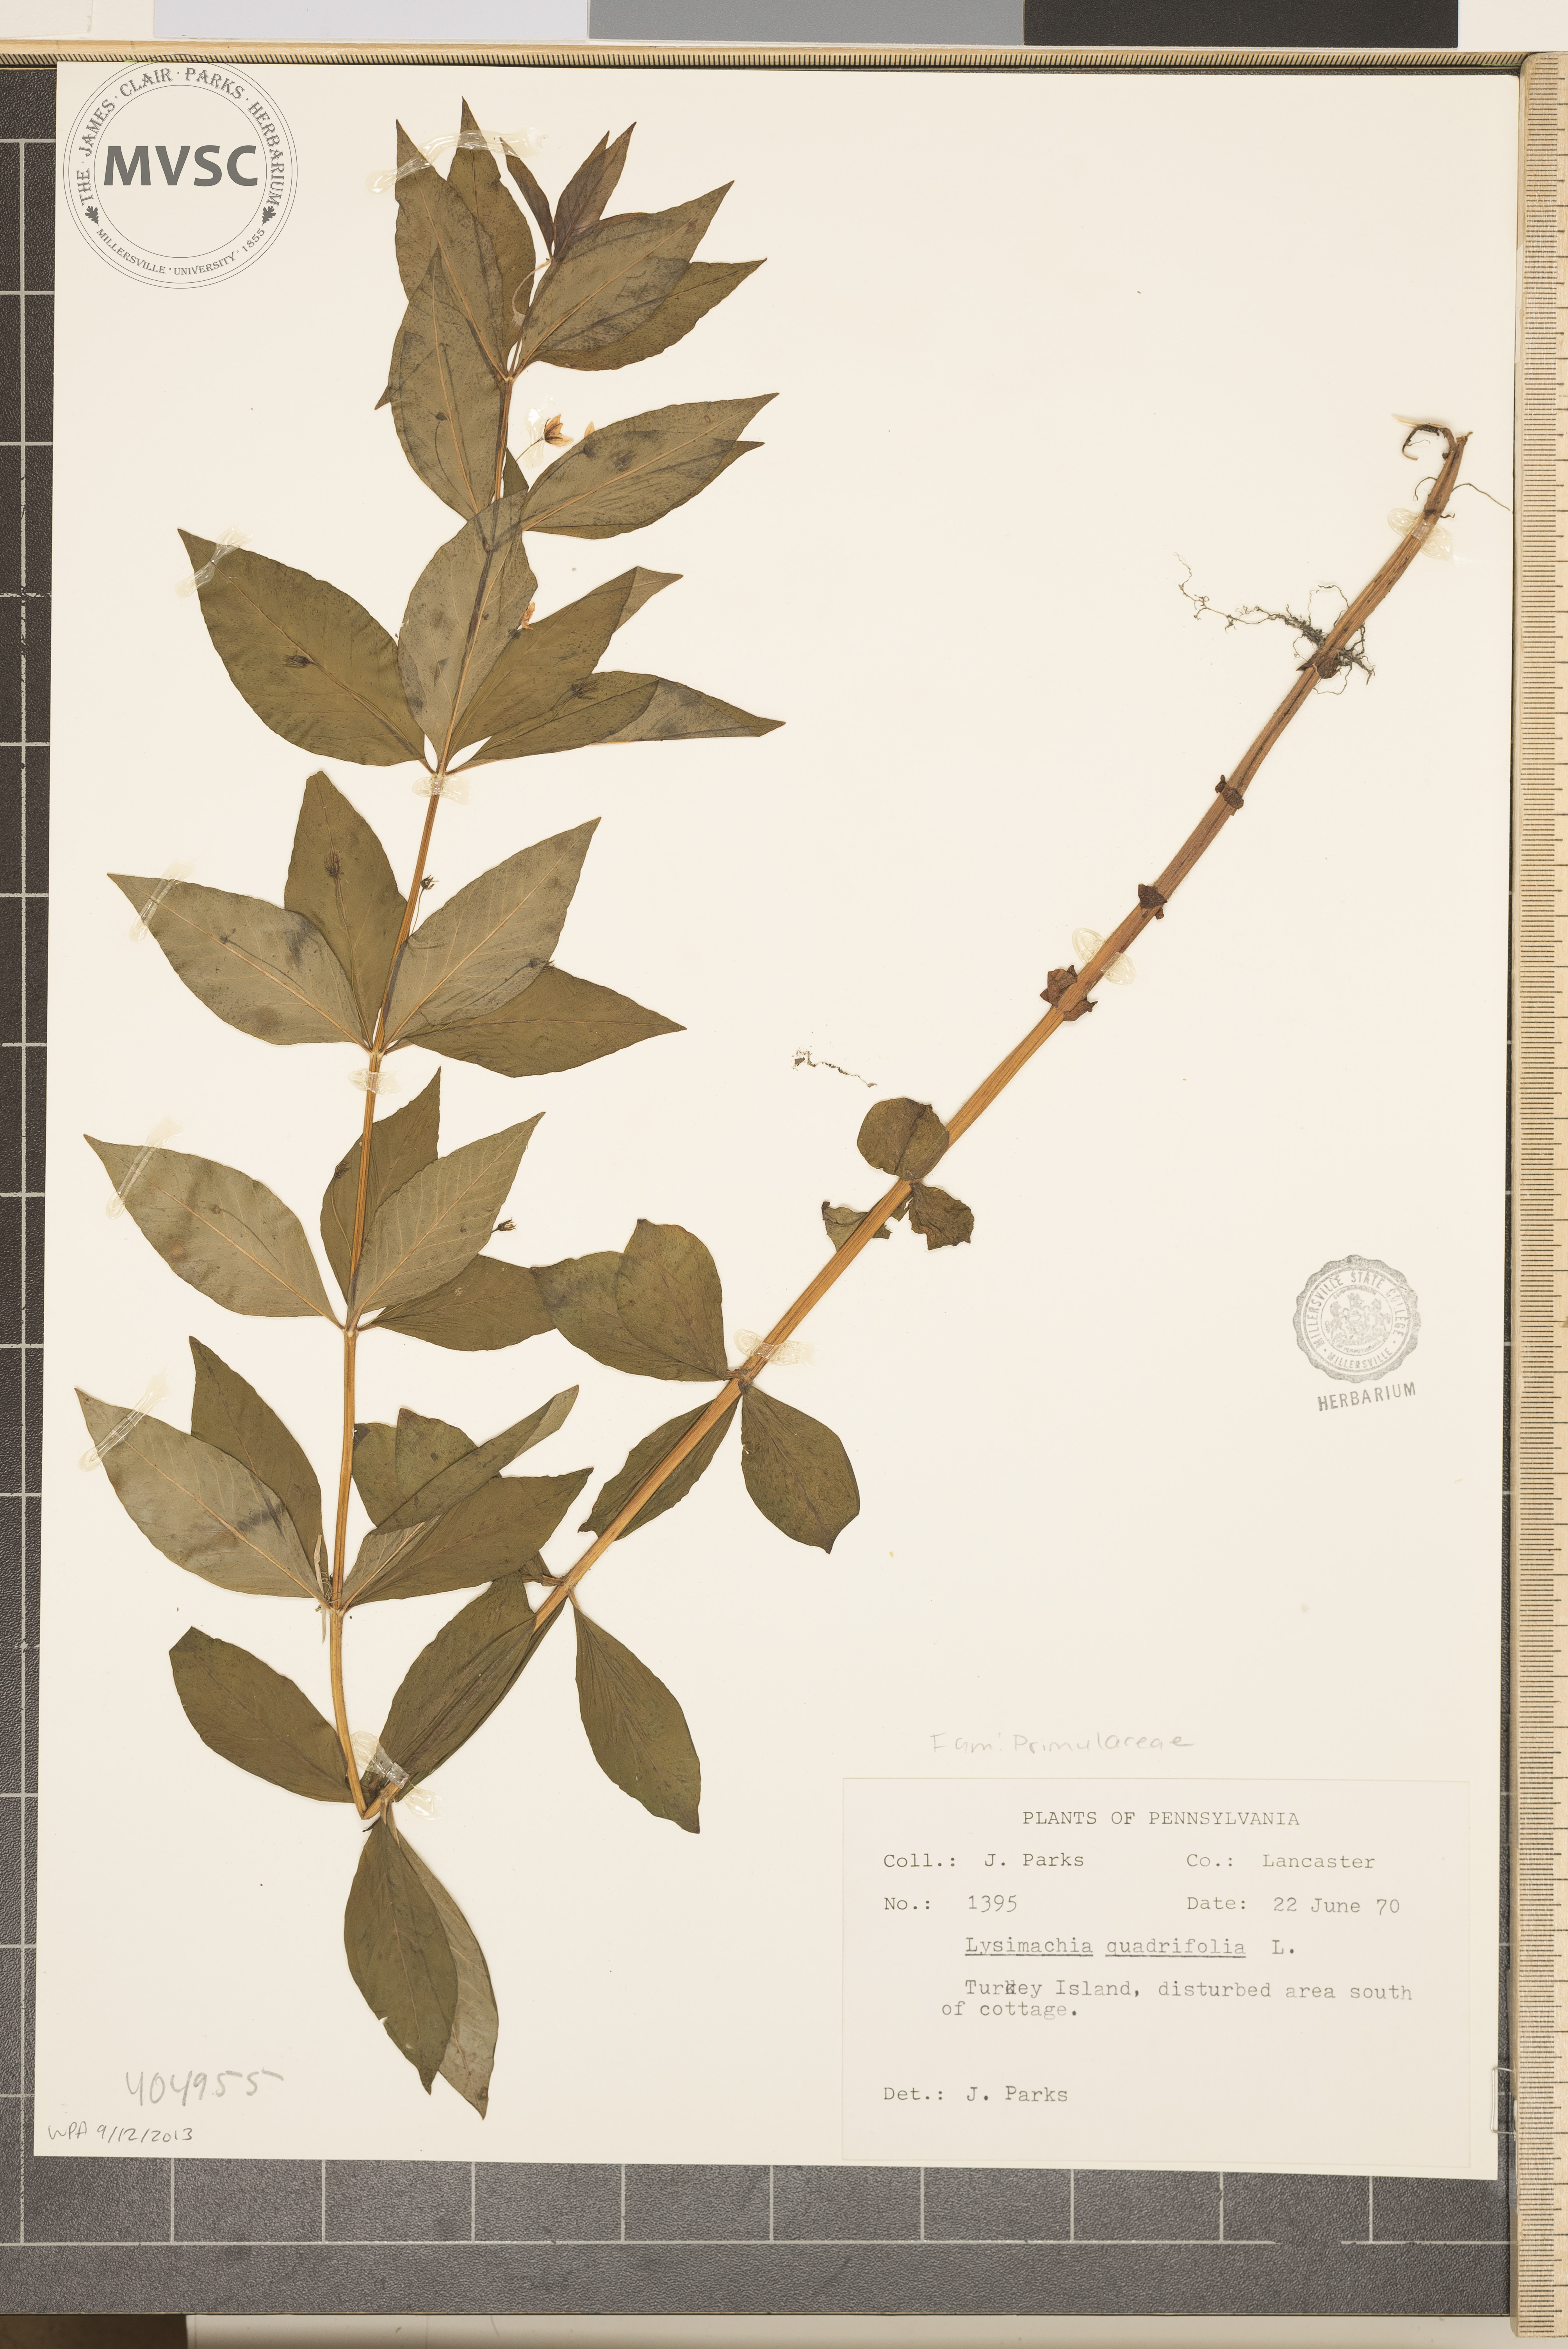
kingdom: Plantae
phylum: Tracheophyta
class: Magnoliopsida
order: Ericales
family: Primulaceae
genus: Lysimachia
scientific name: Lysimachia quadrifolia
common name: Whorled loosestrife
